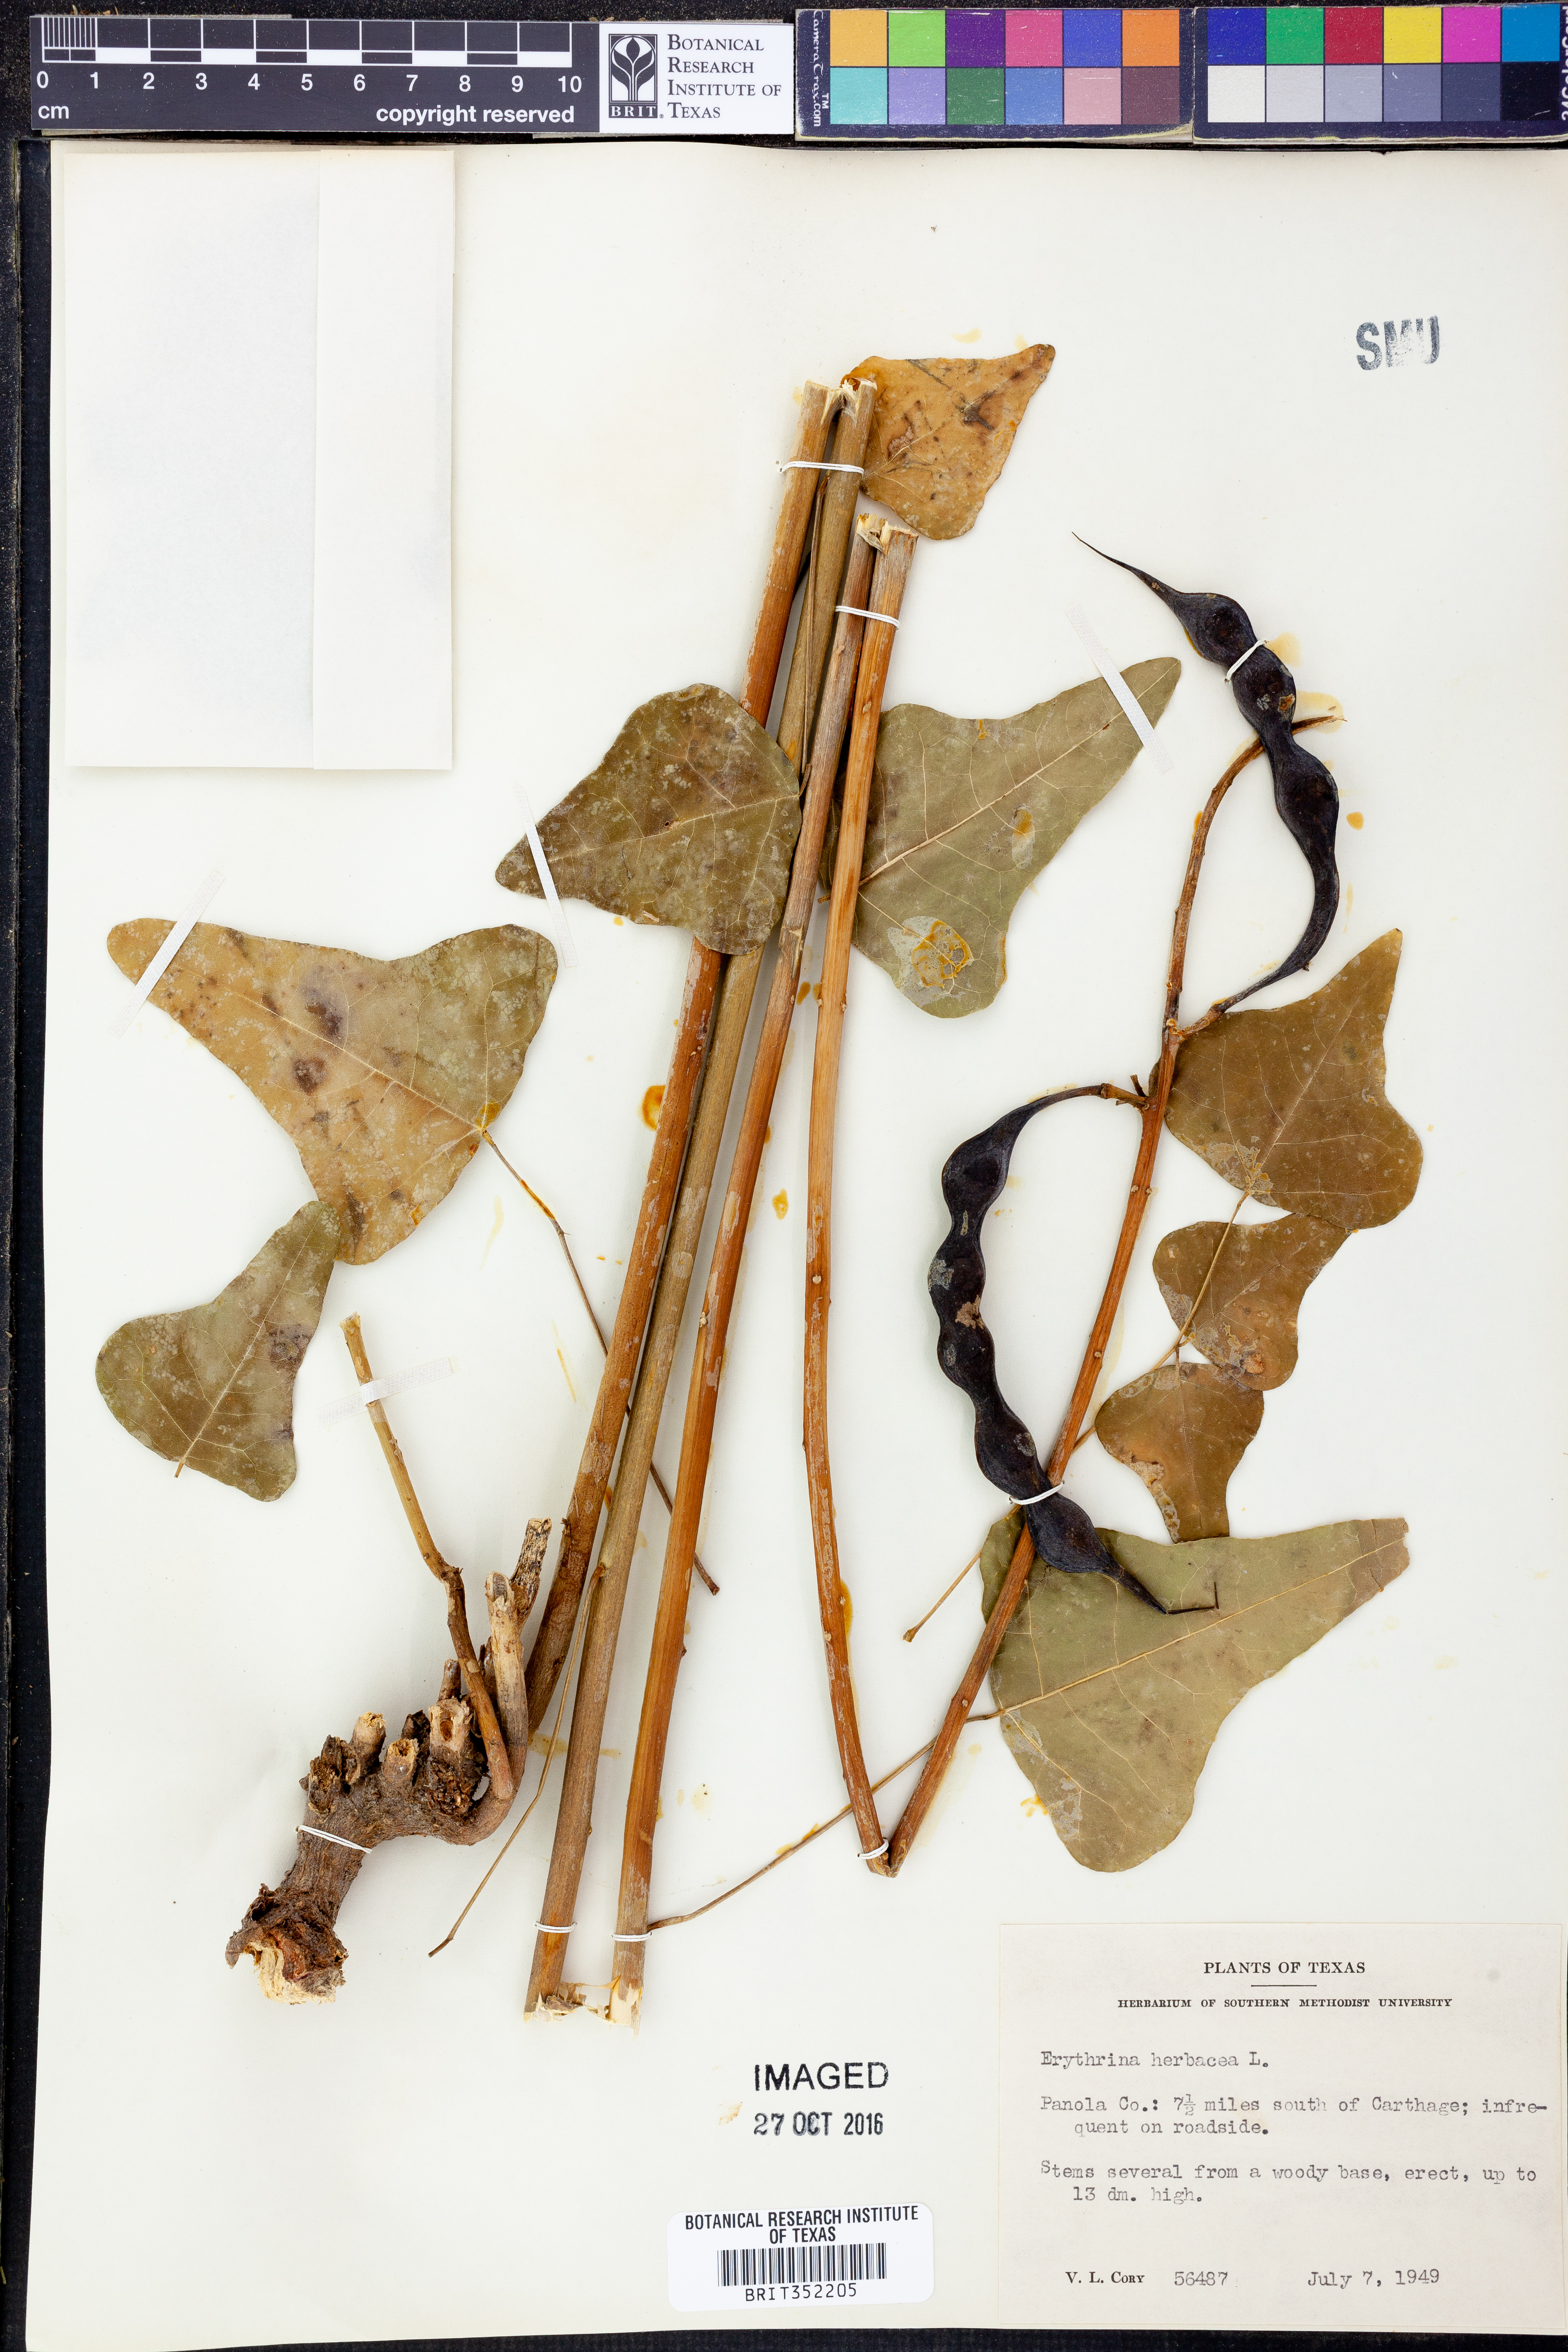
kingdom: Plantae
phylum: Tracheophyta
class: Magnoliopsida
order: Fabales
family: Fabaceae
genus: Erythrina
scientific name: Erythrina herbacea
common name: Coral-bean
